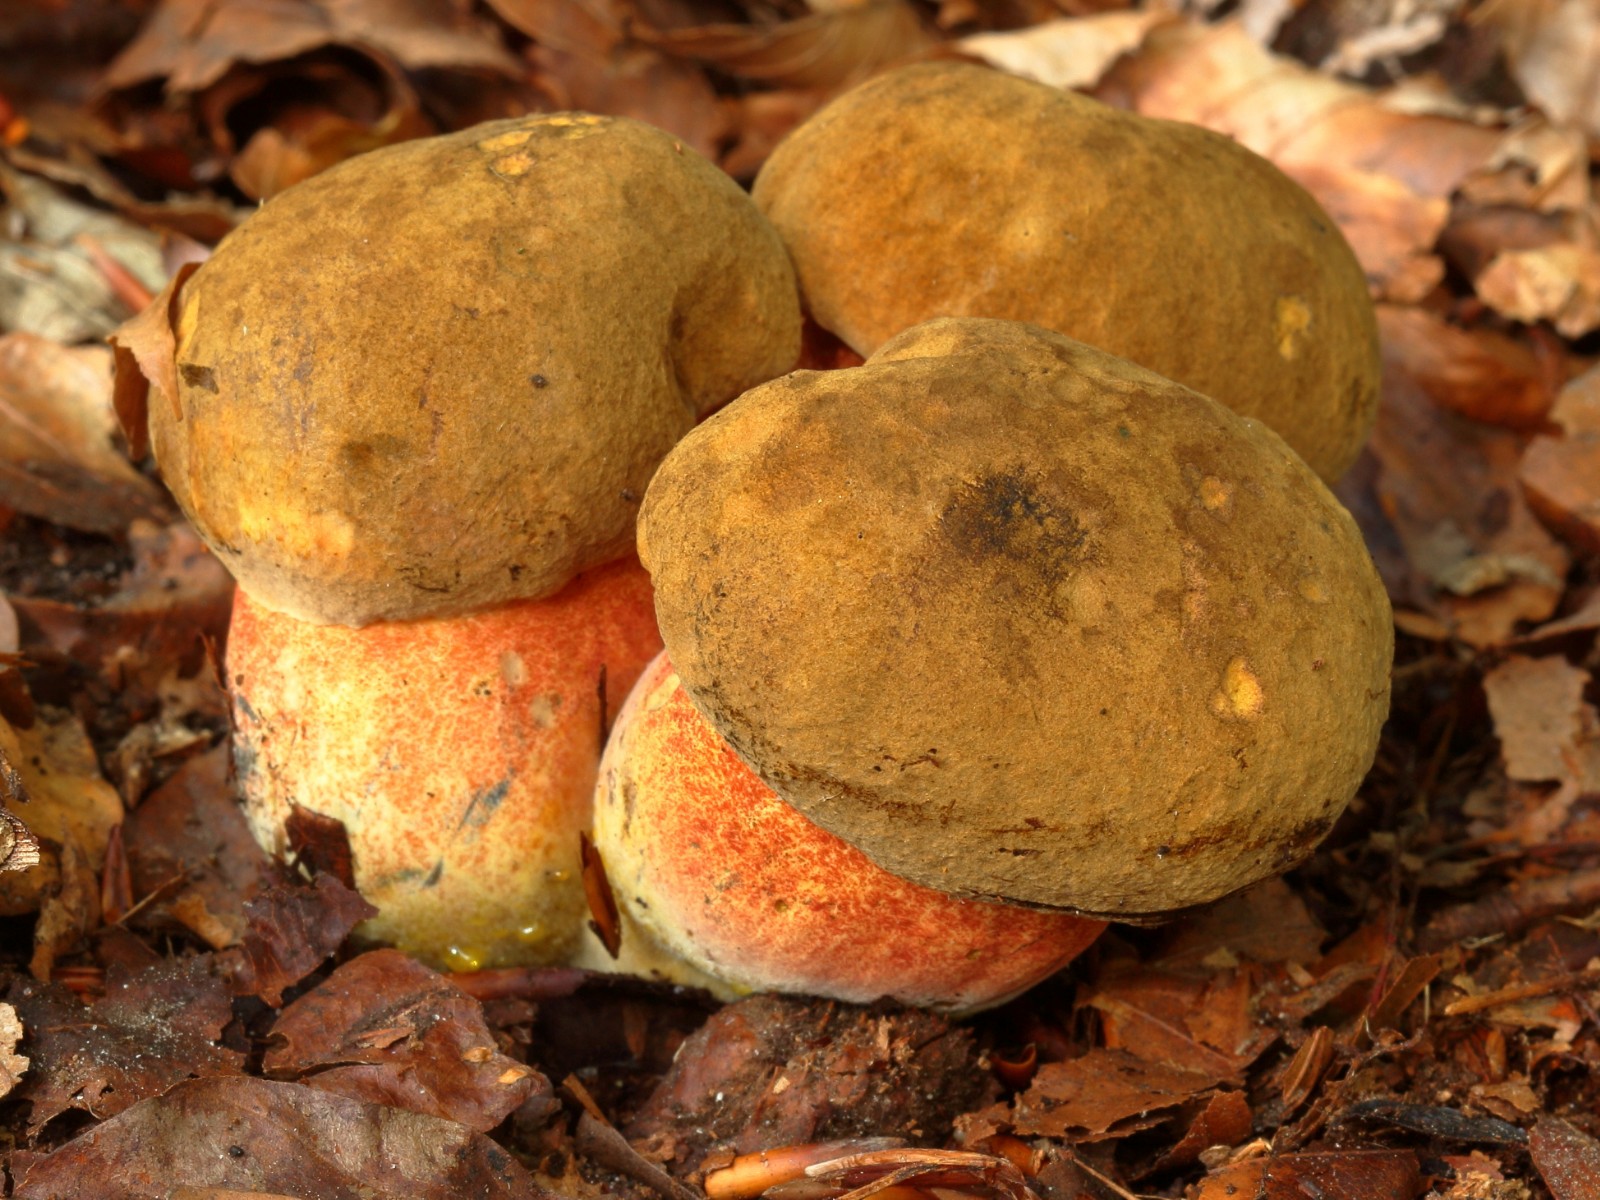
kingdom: Fungi
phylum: Basidiomycota
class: Agaricomycetes
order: Boletales
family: Boletaceae
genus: Neoboletus
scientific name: Neoboletus erythropus
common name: punktstokket indigorørhat
